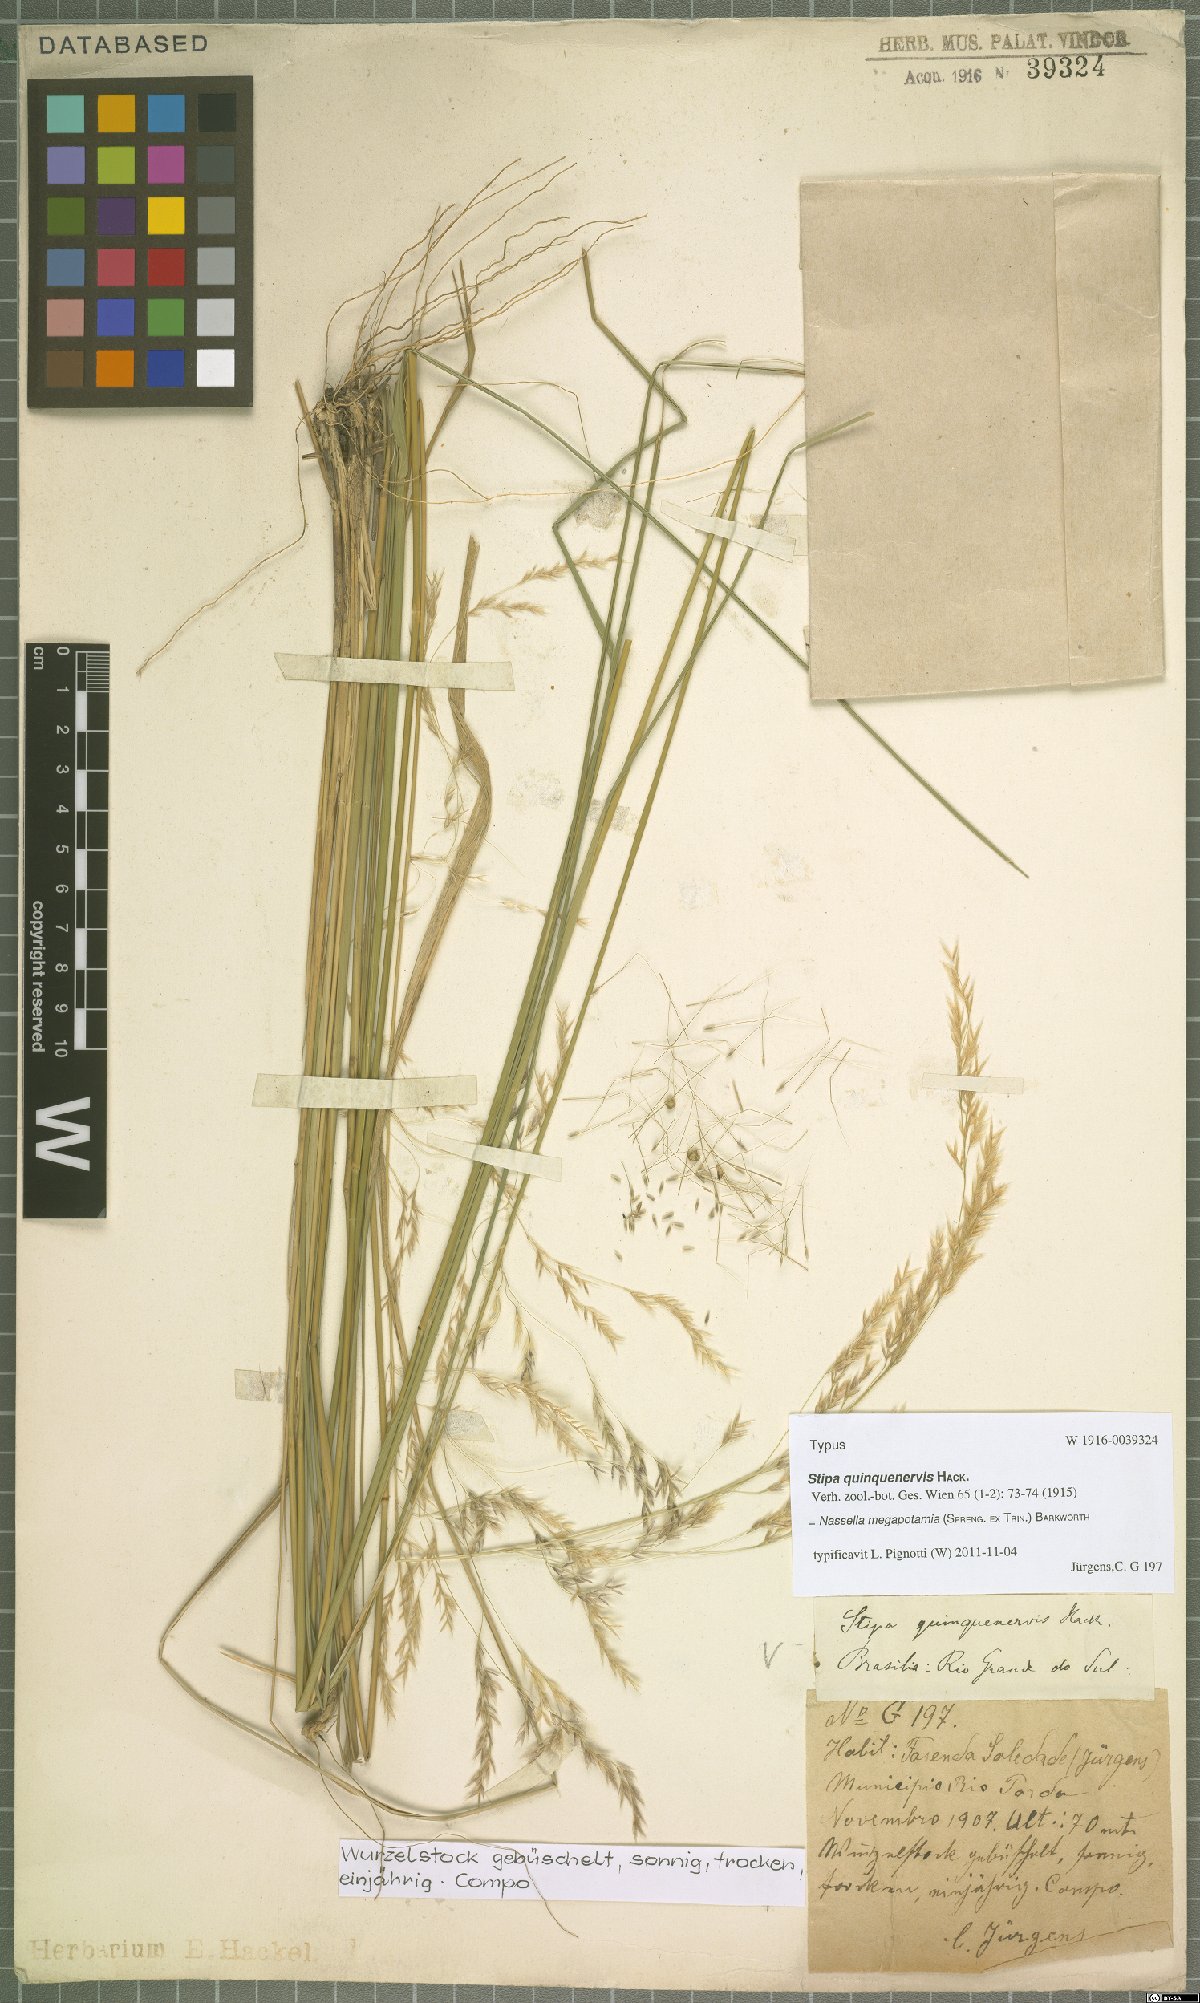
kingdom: Plantae
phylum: Tracheophyta
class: Liliopsida
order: Poales
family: Poaceae
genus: Jarava
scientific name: Jarava filifolia
